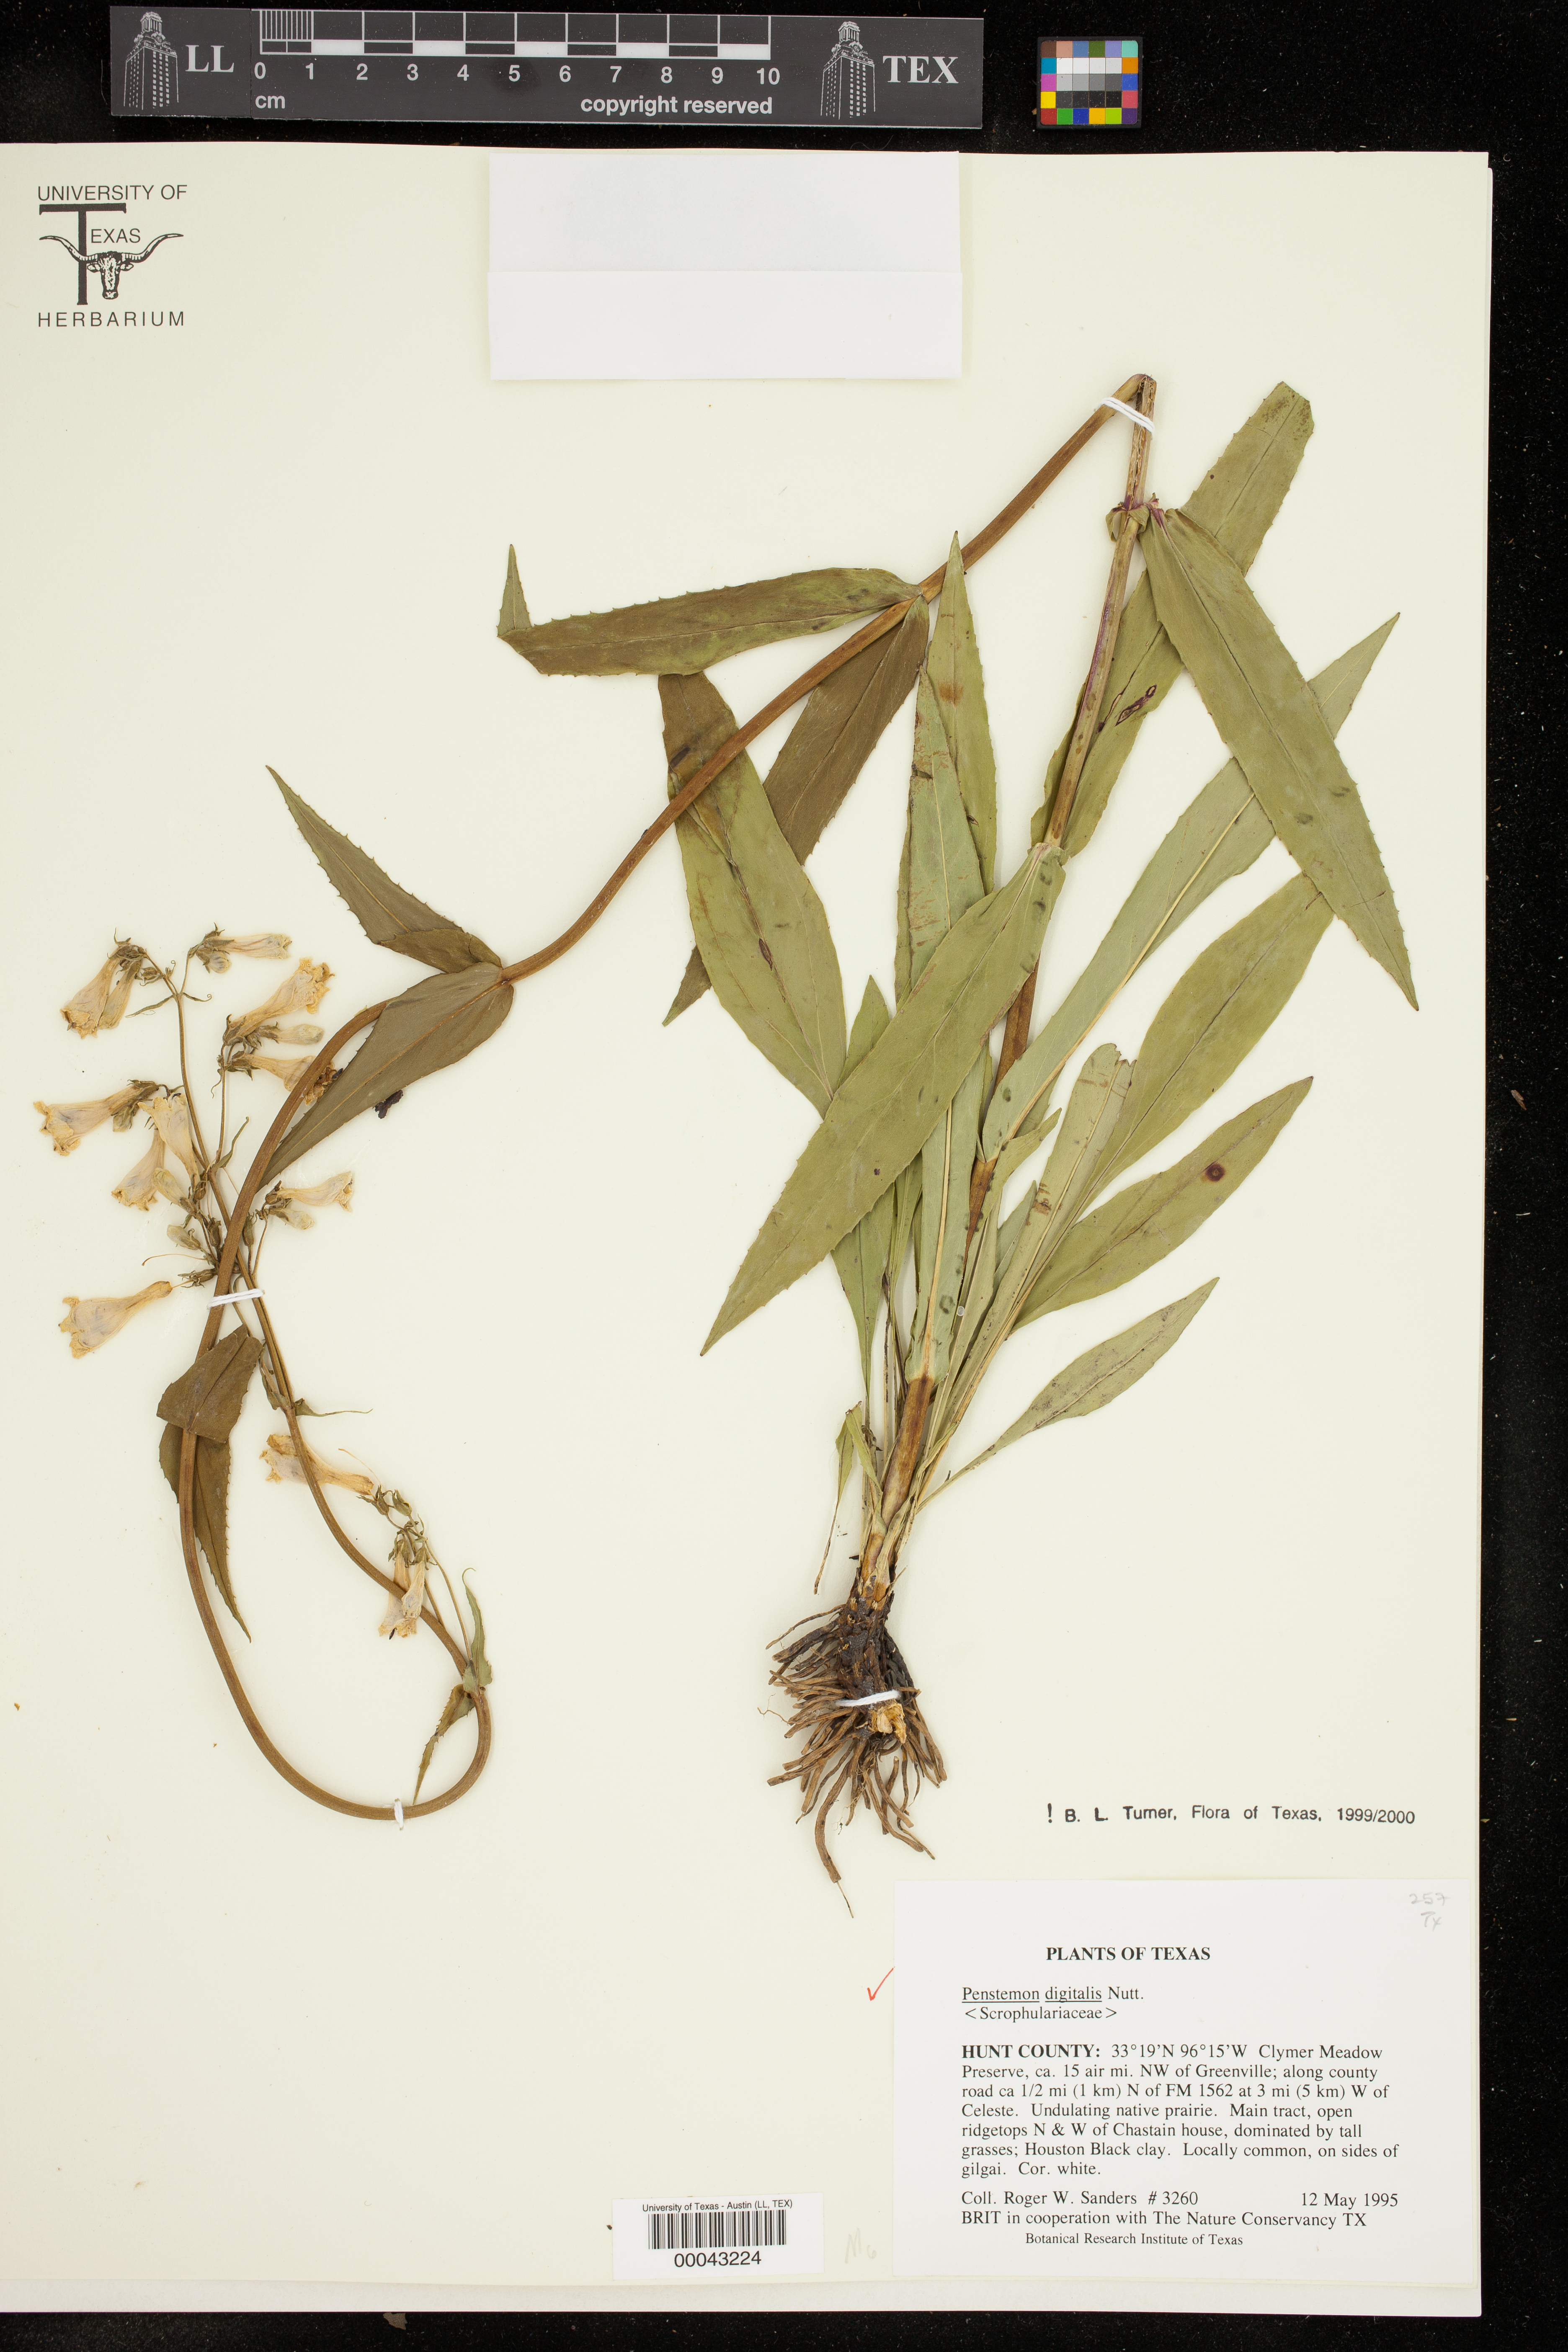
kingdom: Plantae
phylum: Tracheophyta
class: Magnoliopsida
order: Lamiales
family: Plantaginaceae
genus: Penstemon
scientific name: Penstemon digitalis
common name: Foxglove beardtongue
